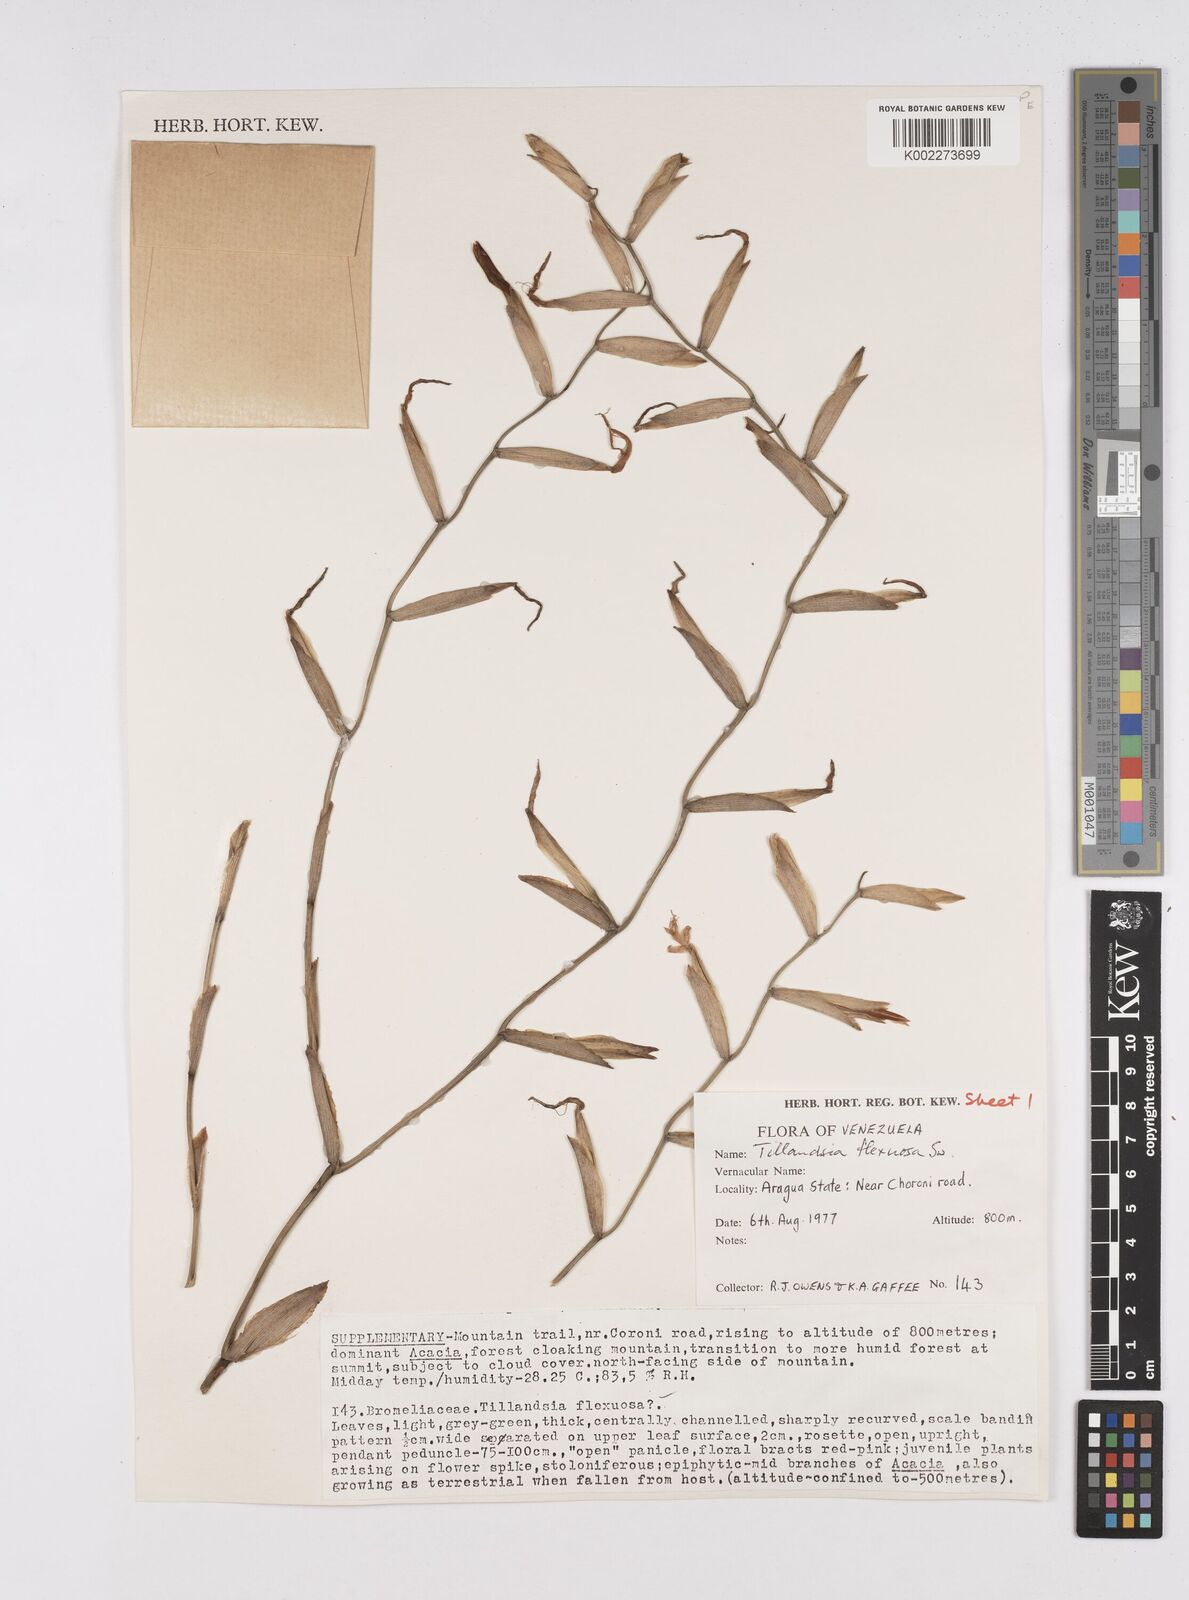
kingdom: Plantae
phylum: Tracheophyta
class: Liliopsida
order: Poales
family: Bromeliaceae
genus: Tillandsia
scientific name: Tillandsia flexuosa
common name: Banded airplant
